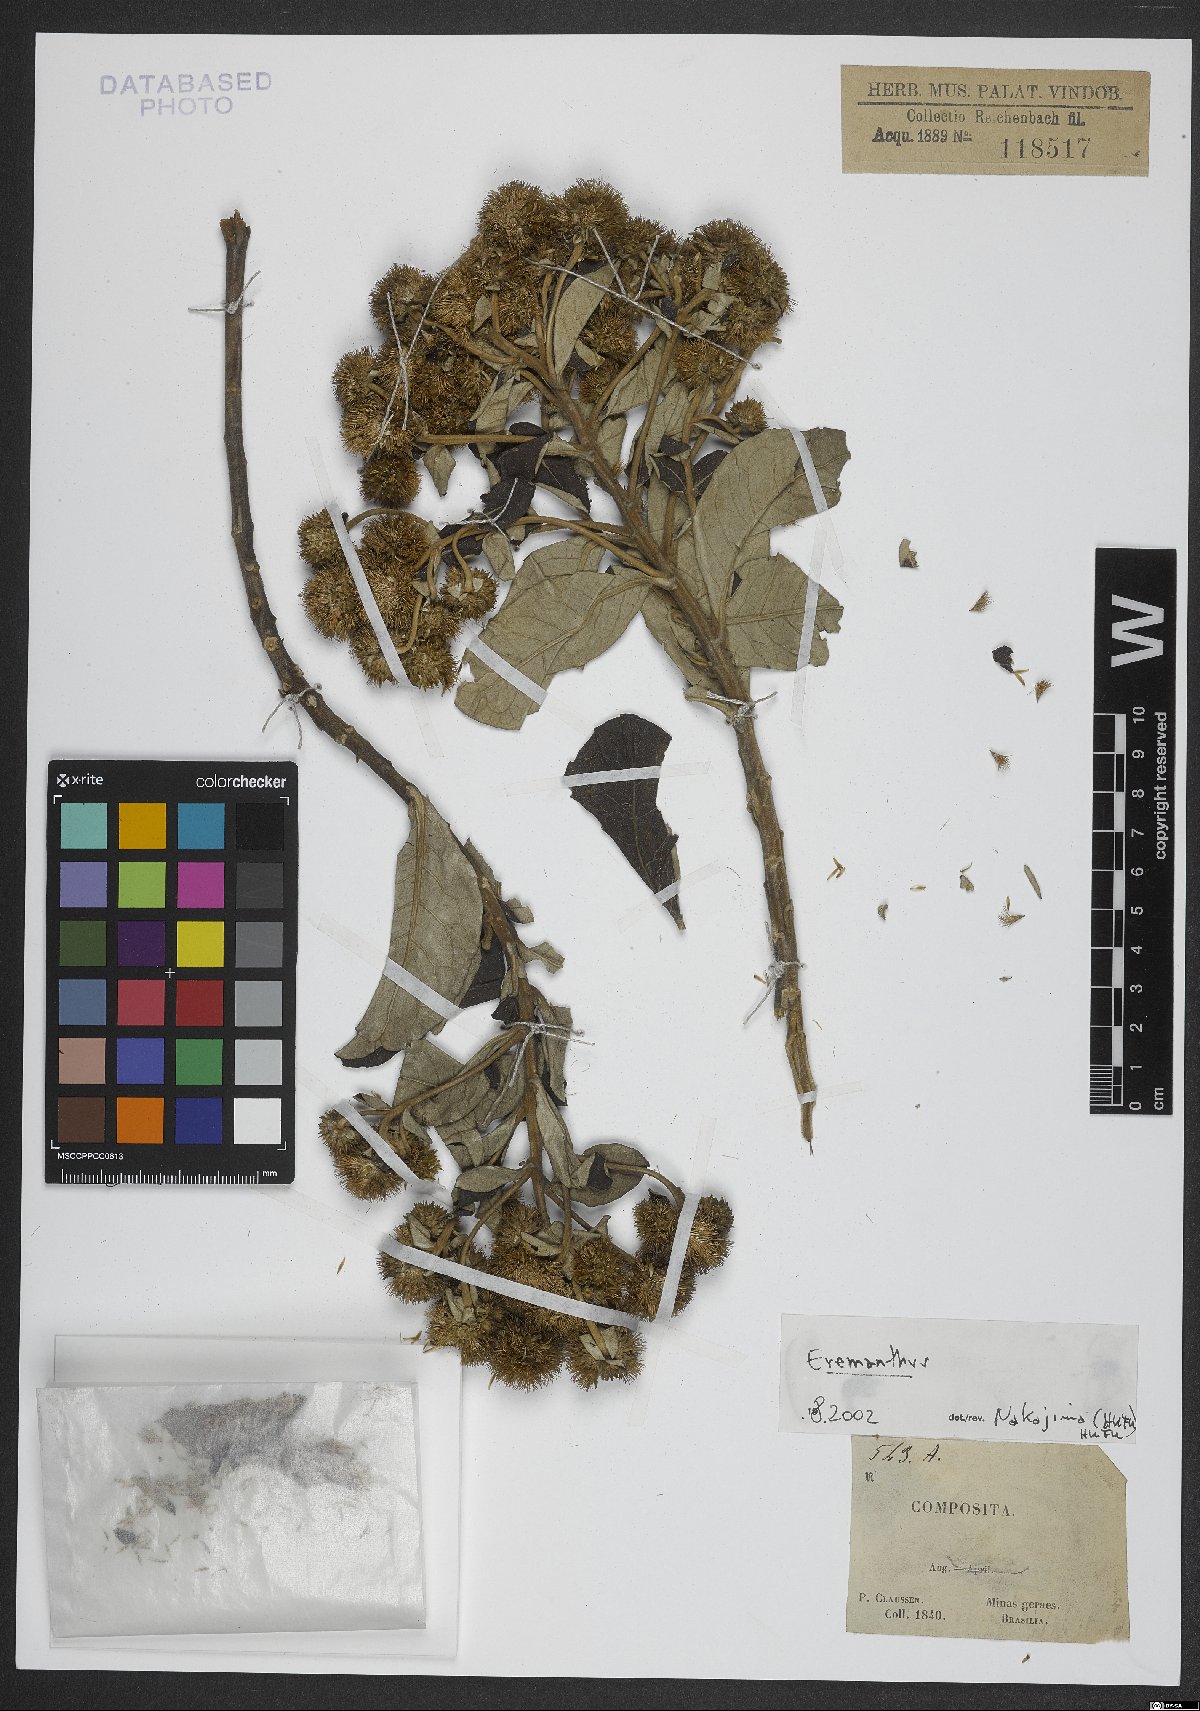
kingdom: Plantae
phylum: Tracheophyta
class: Magnoliopsida
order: Asterales
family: Asteraceae
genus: Eremanthus
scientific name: Eremanthus
